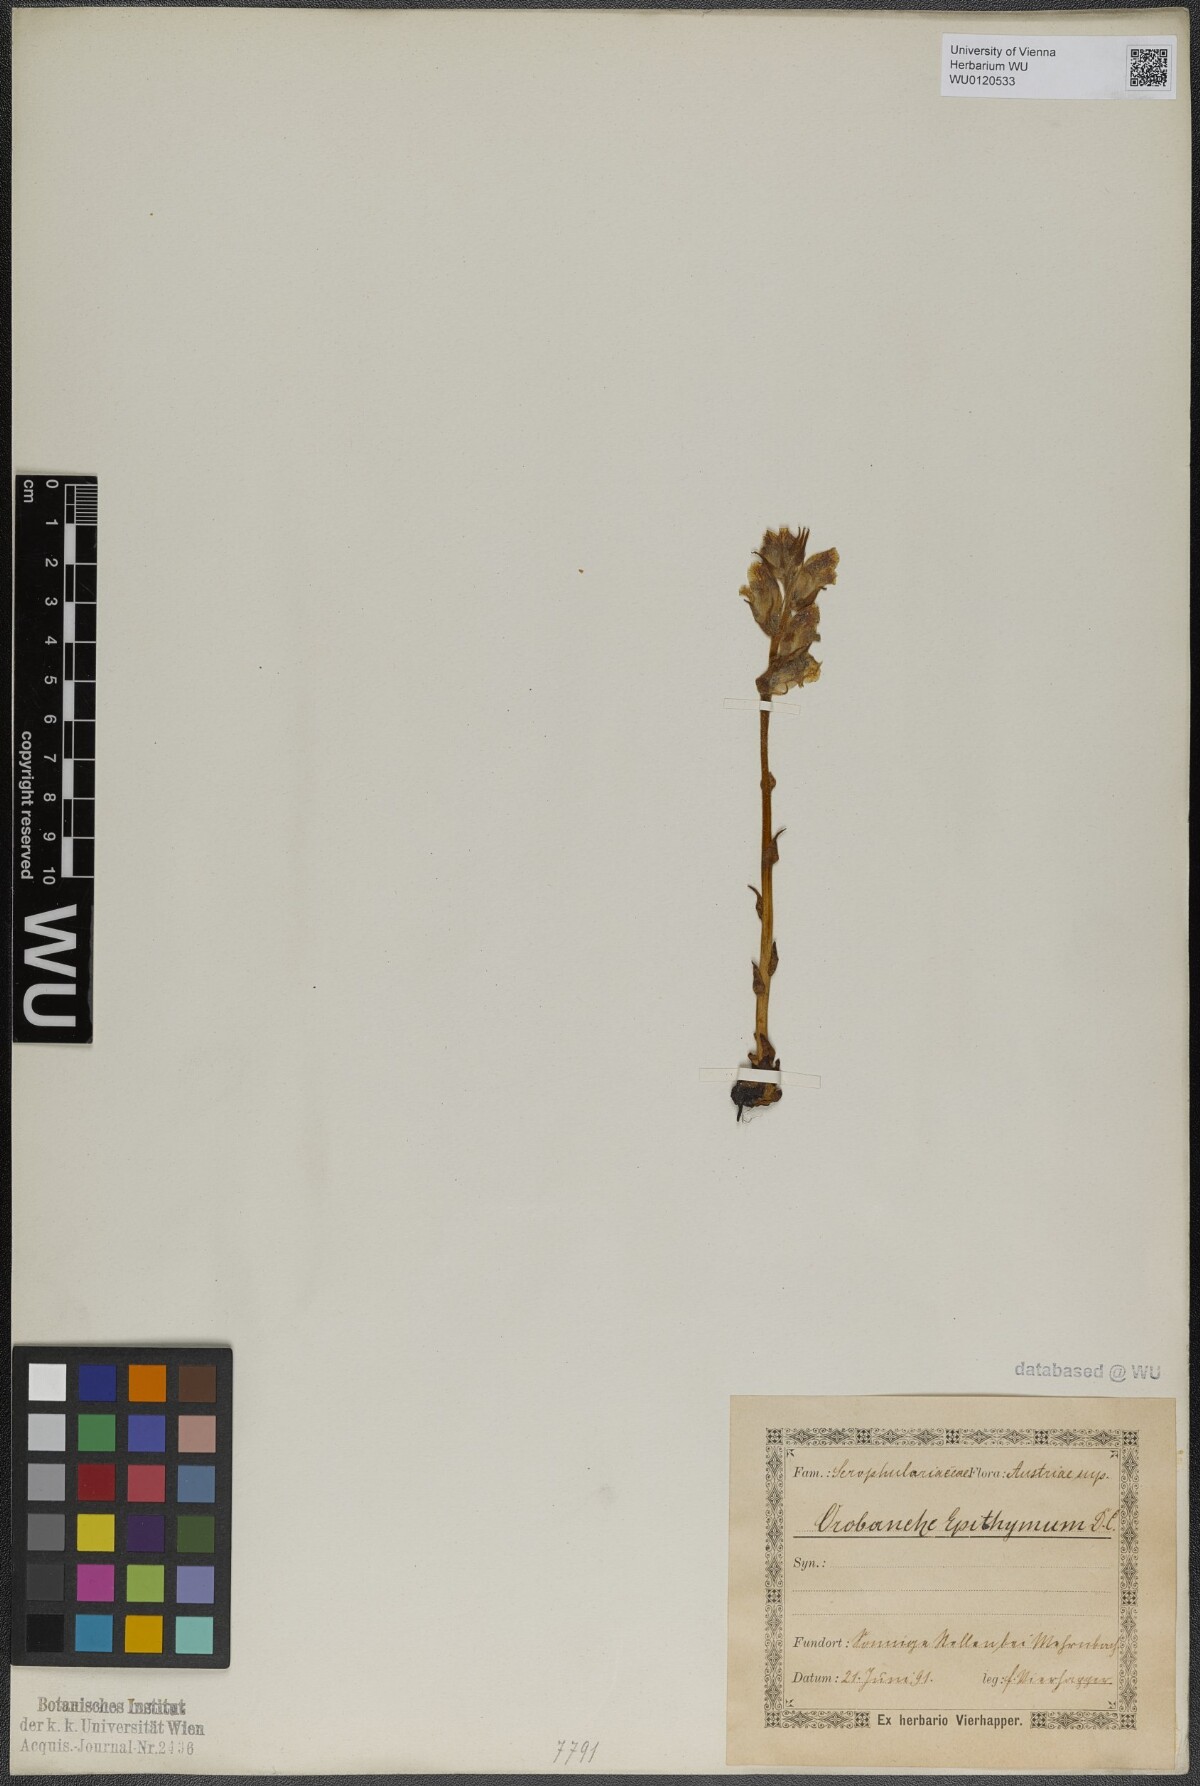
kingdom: Plantae
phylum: Tracheophyta
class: Magnoliopsida
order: Lamiales
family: Orobanchaceae
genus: Orobanche
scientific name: Orobanche alba
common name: Thyme broomrape
